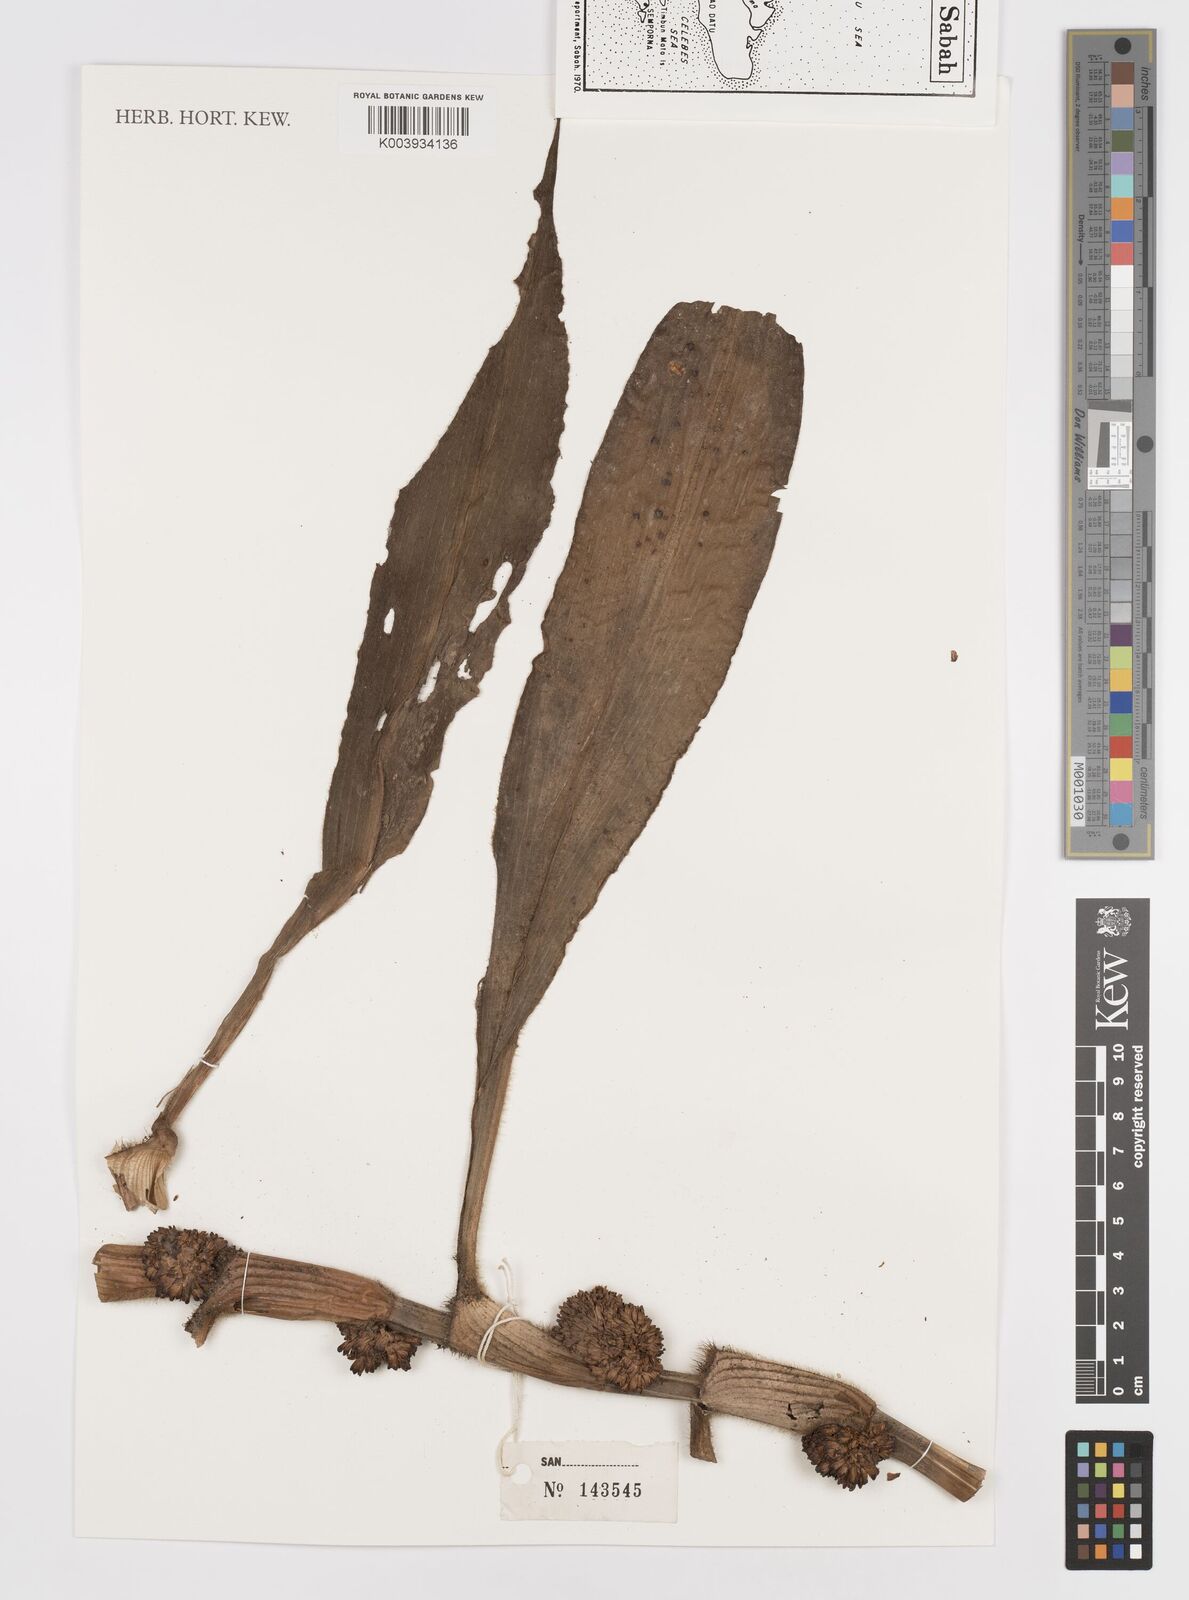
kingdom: Plantae
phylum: Tracheophyta
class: Liliopsida
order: Commelinales
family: Commelinaceae
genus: Amischotolype
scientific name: Amischotolype
